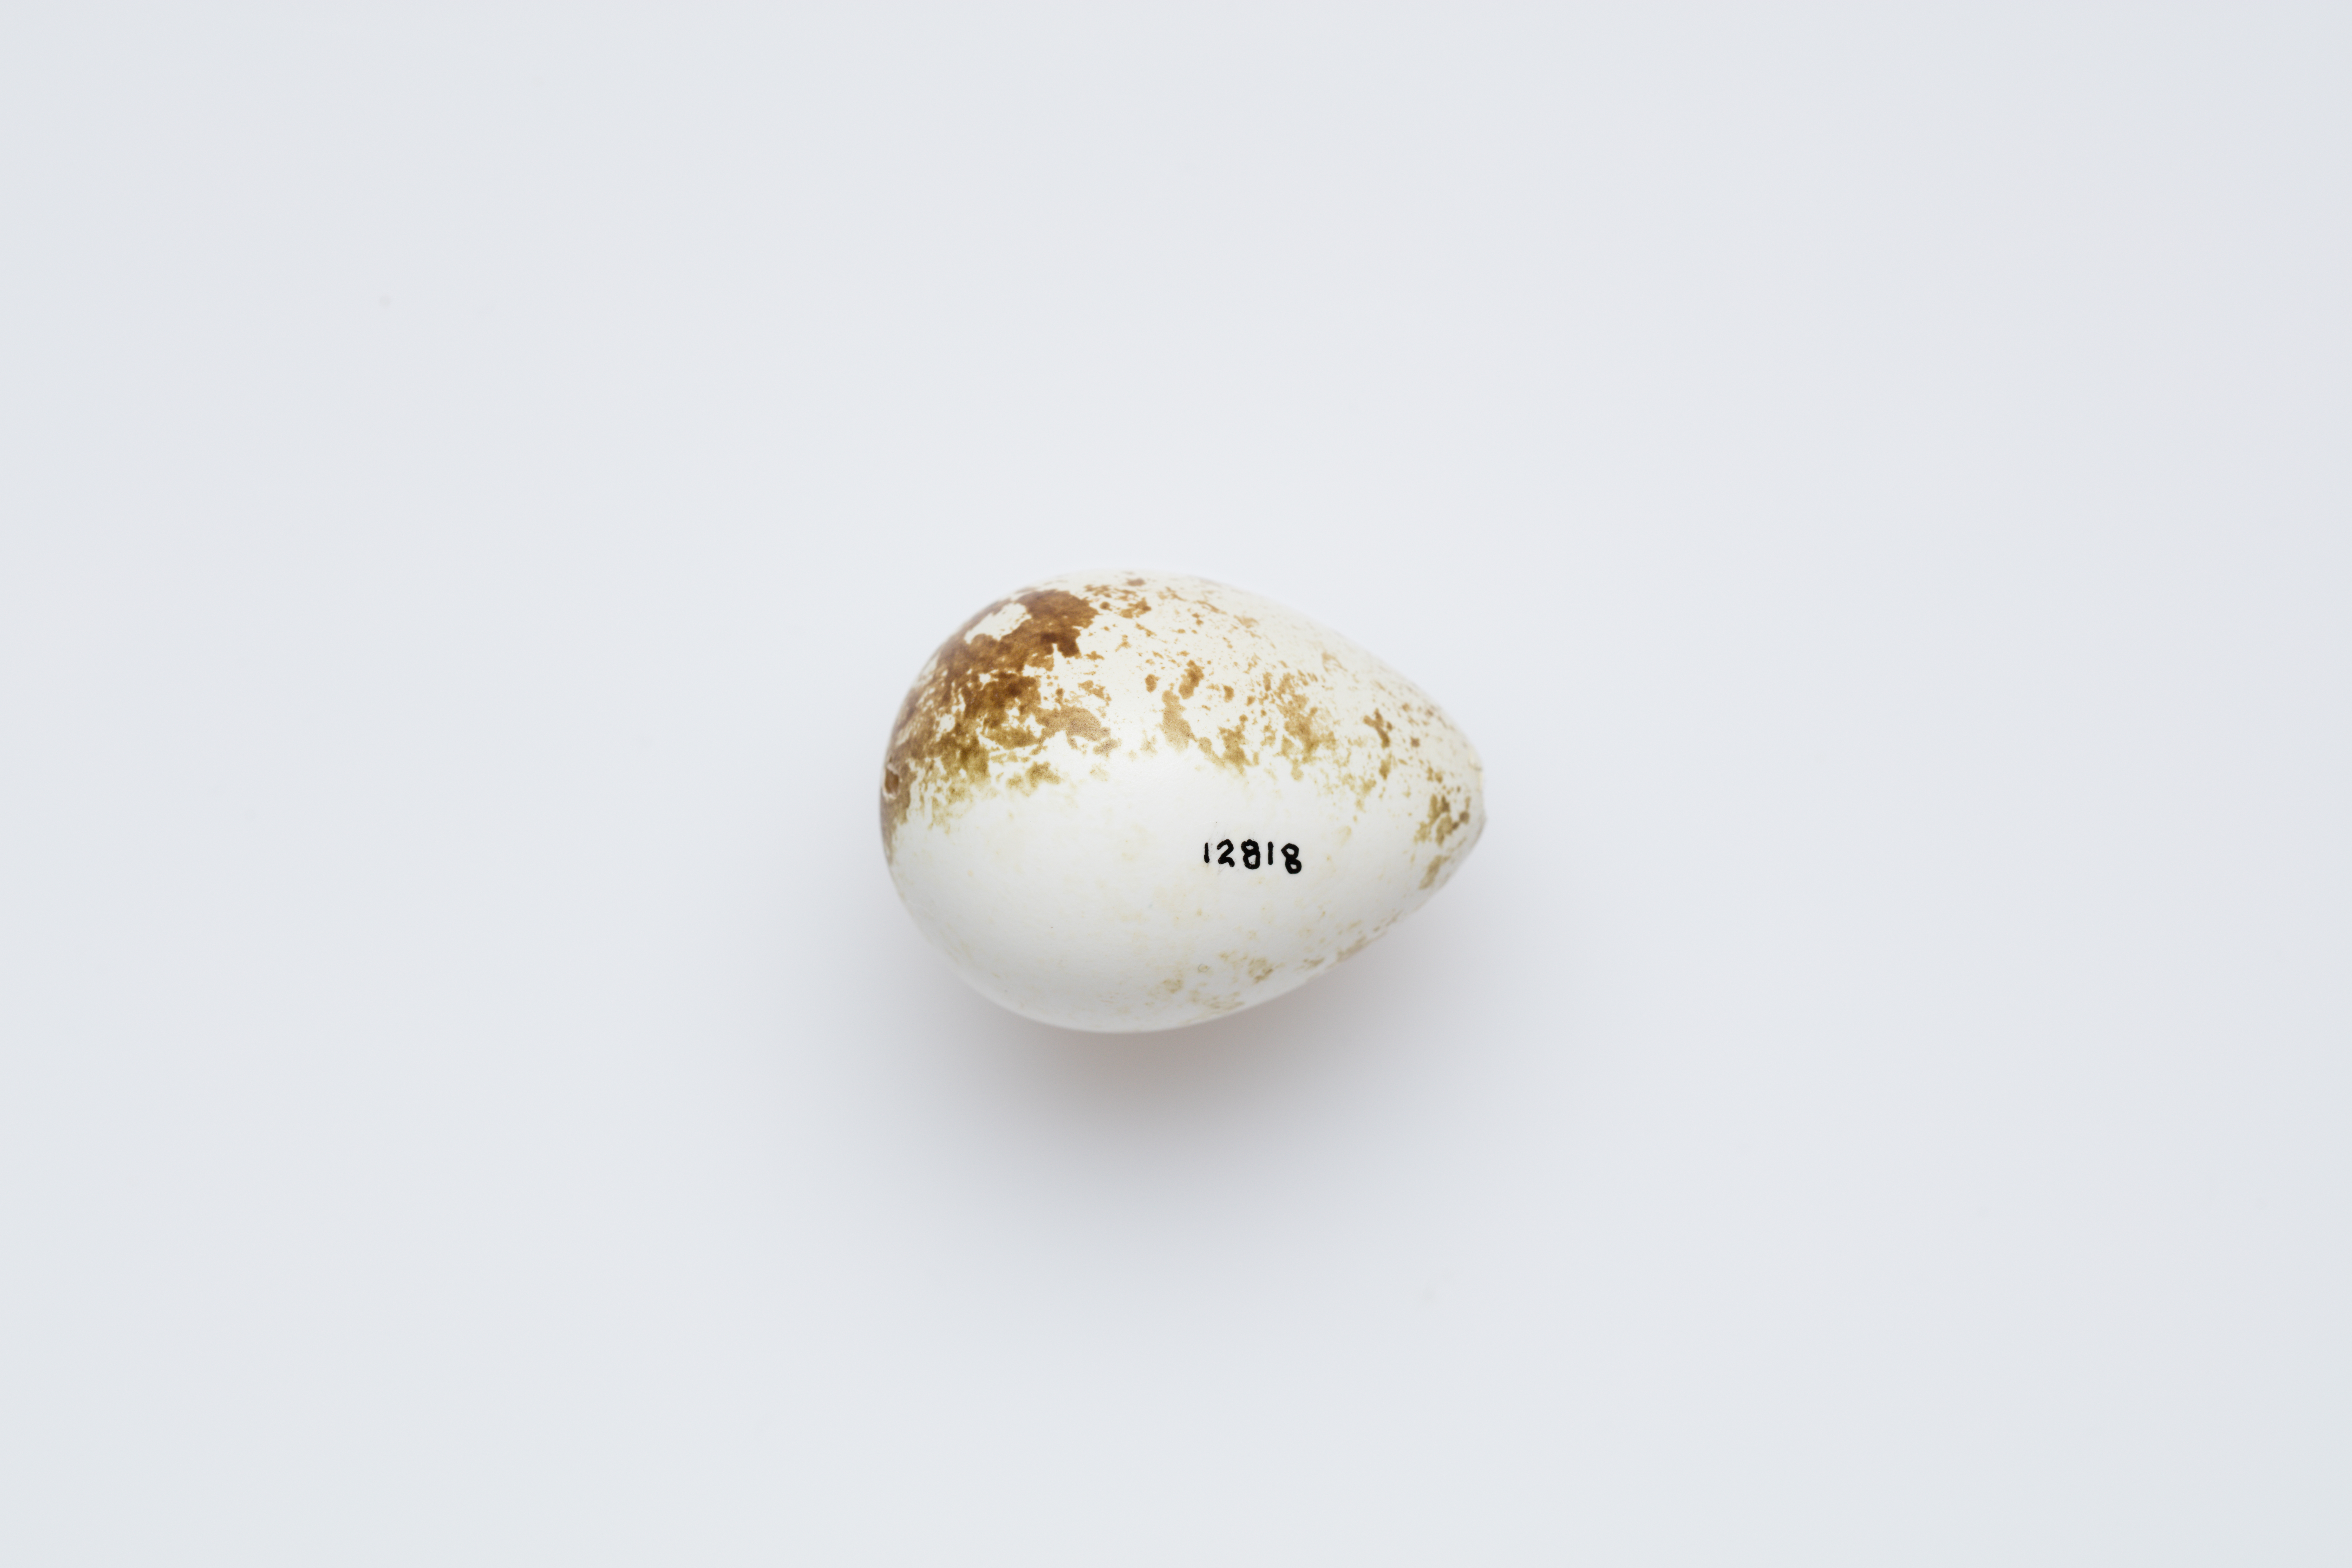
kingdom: Animalia
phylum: Chordata
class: Aves
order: Galliformes
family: Odontophoridae
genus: Callipepla
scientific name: Callipepla californica
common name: California quail
